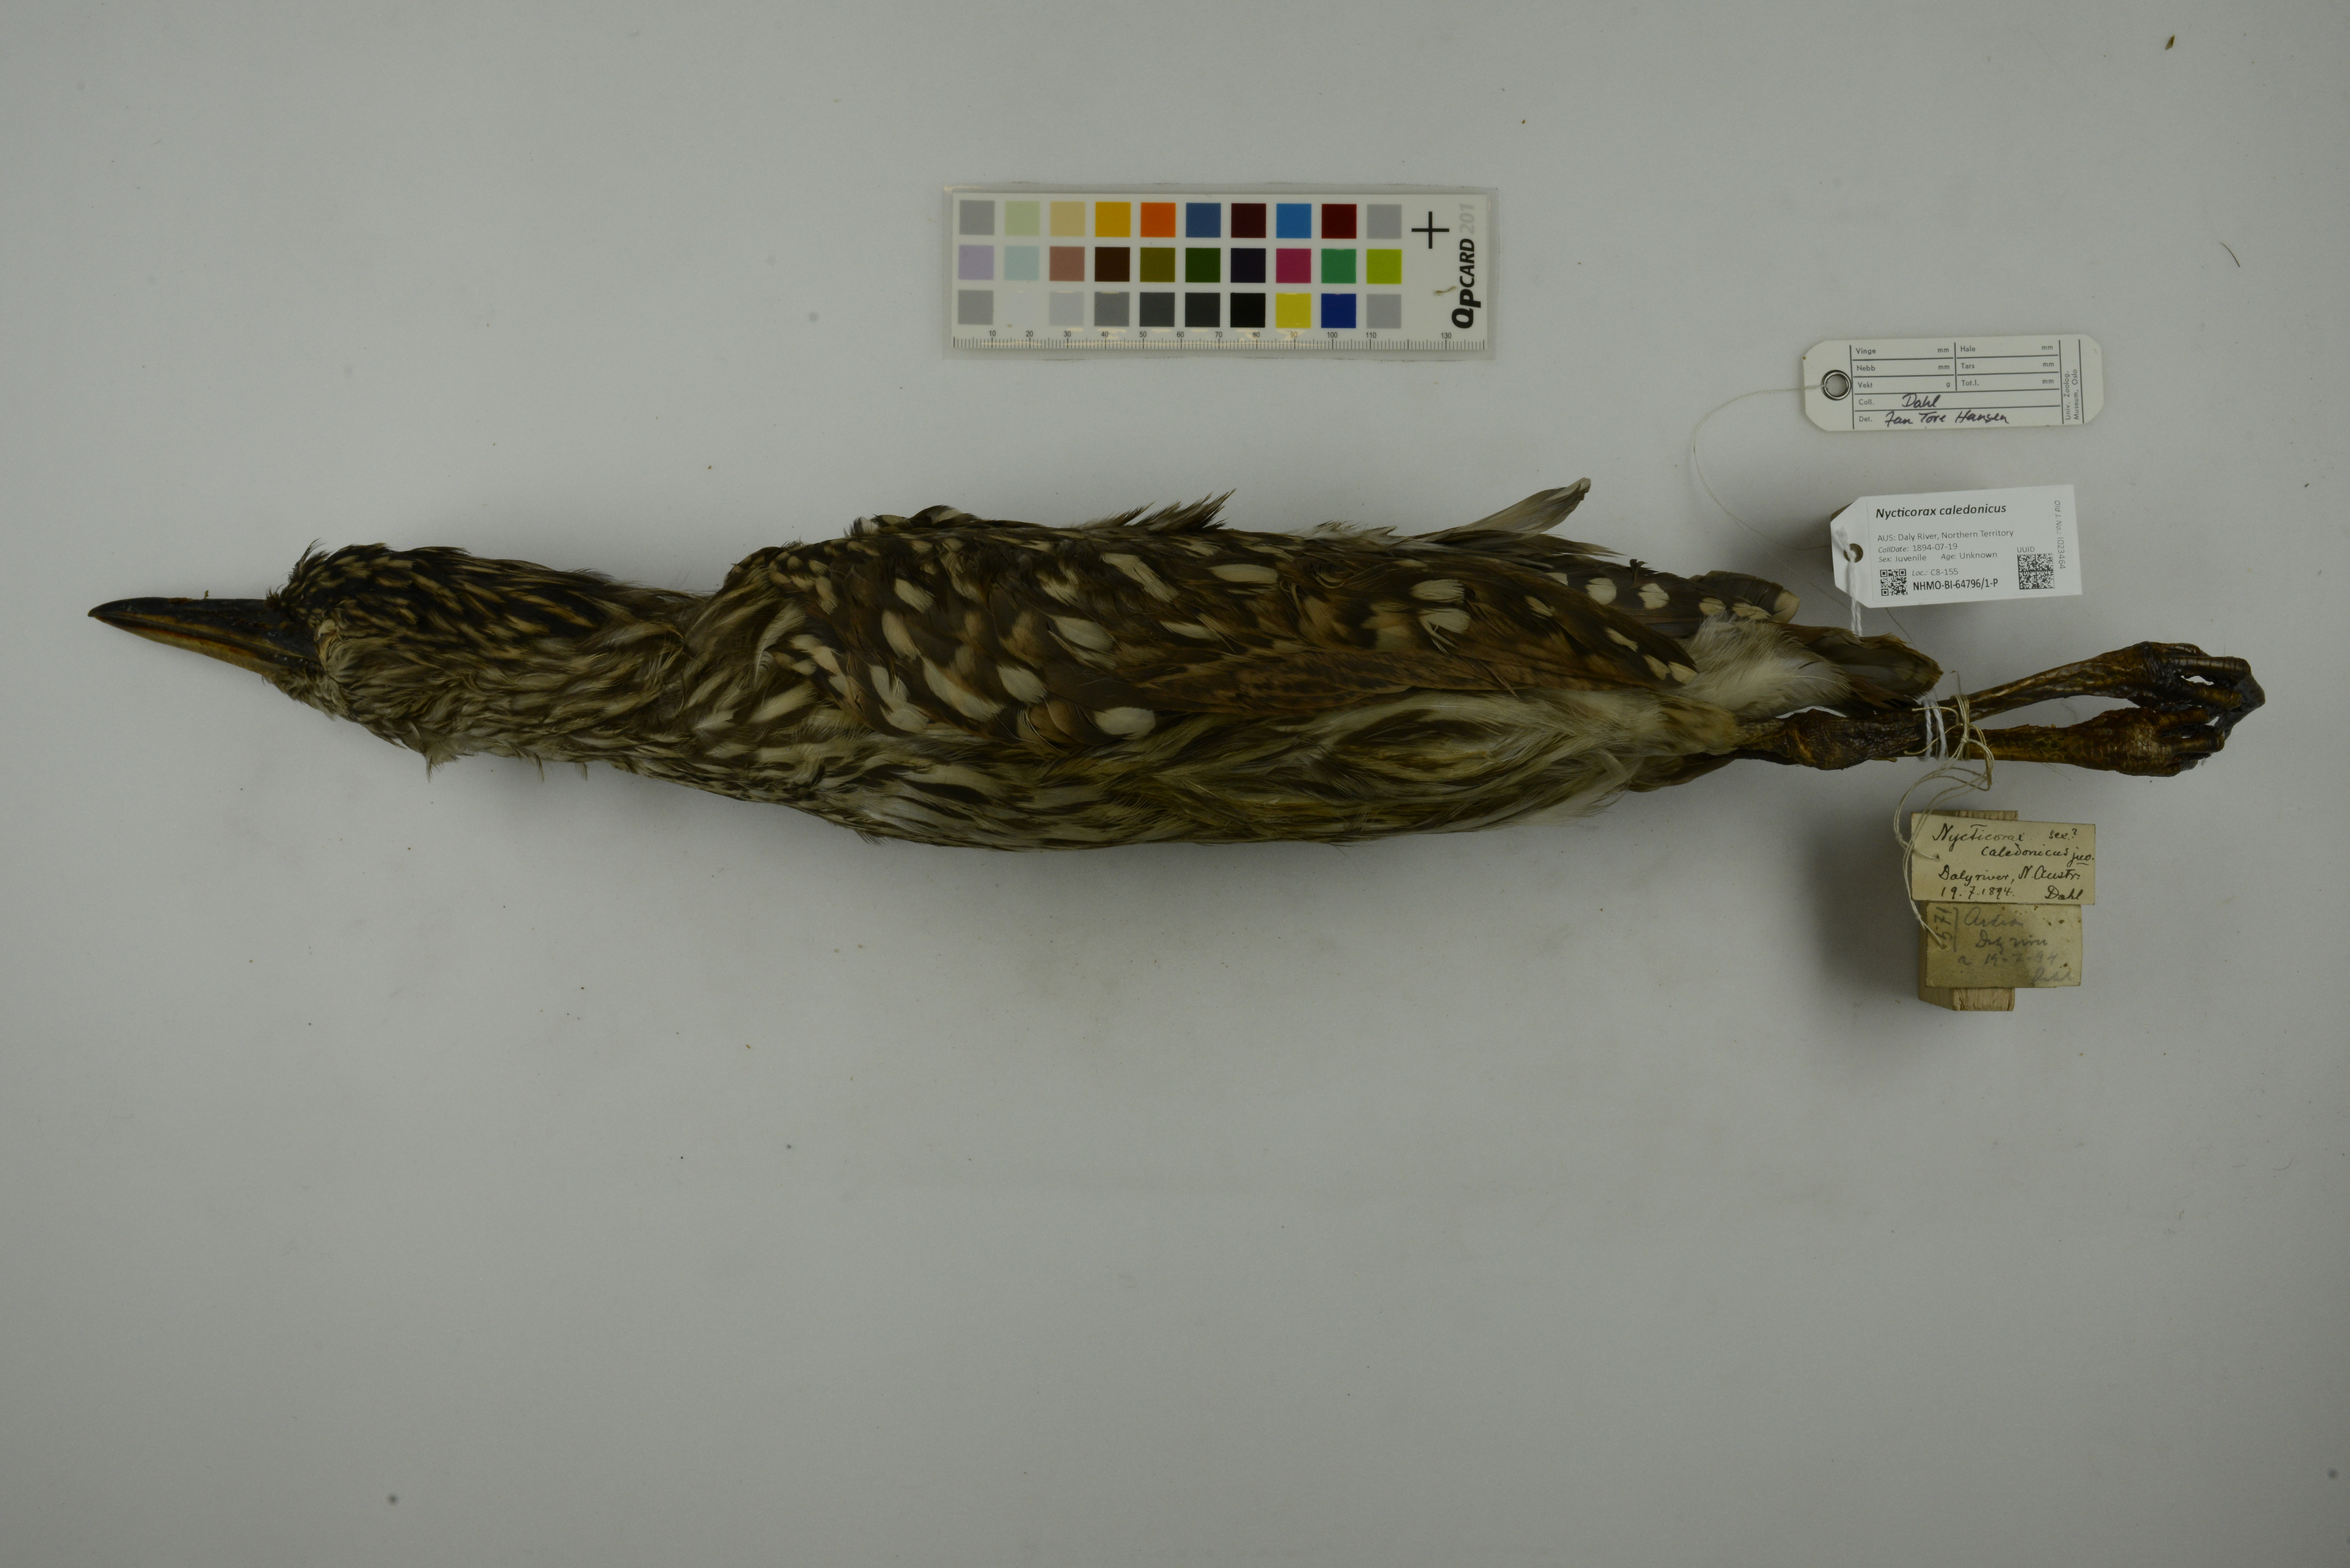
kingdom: Animalia
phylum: Chordata
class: Aves
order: Pelecaniformes
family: Ardeidae
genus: Nycticorax
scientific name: Nycticorax caledonicus
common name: Rufous night-heron
